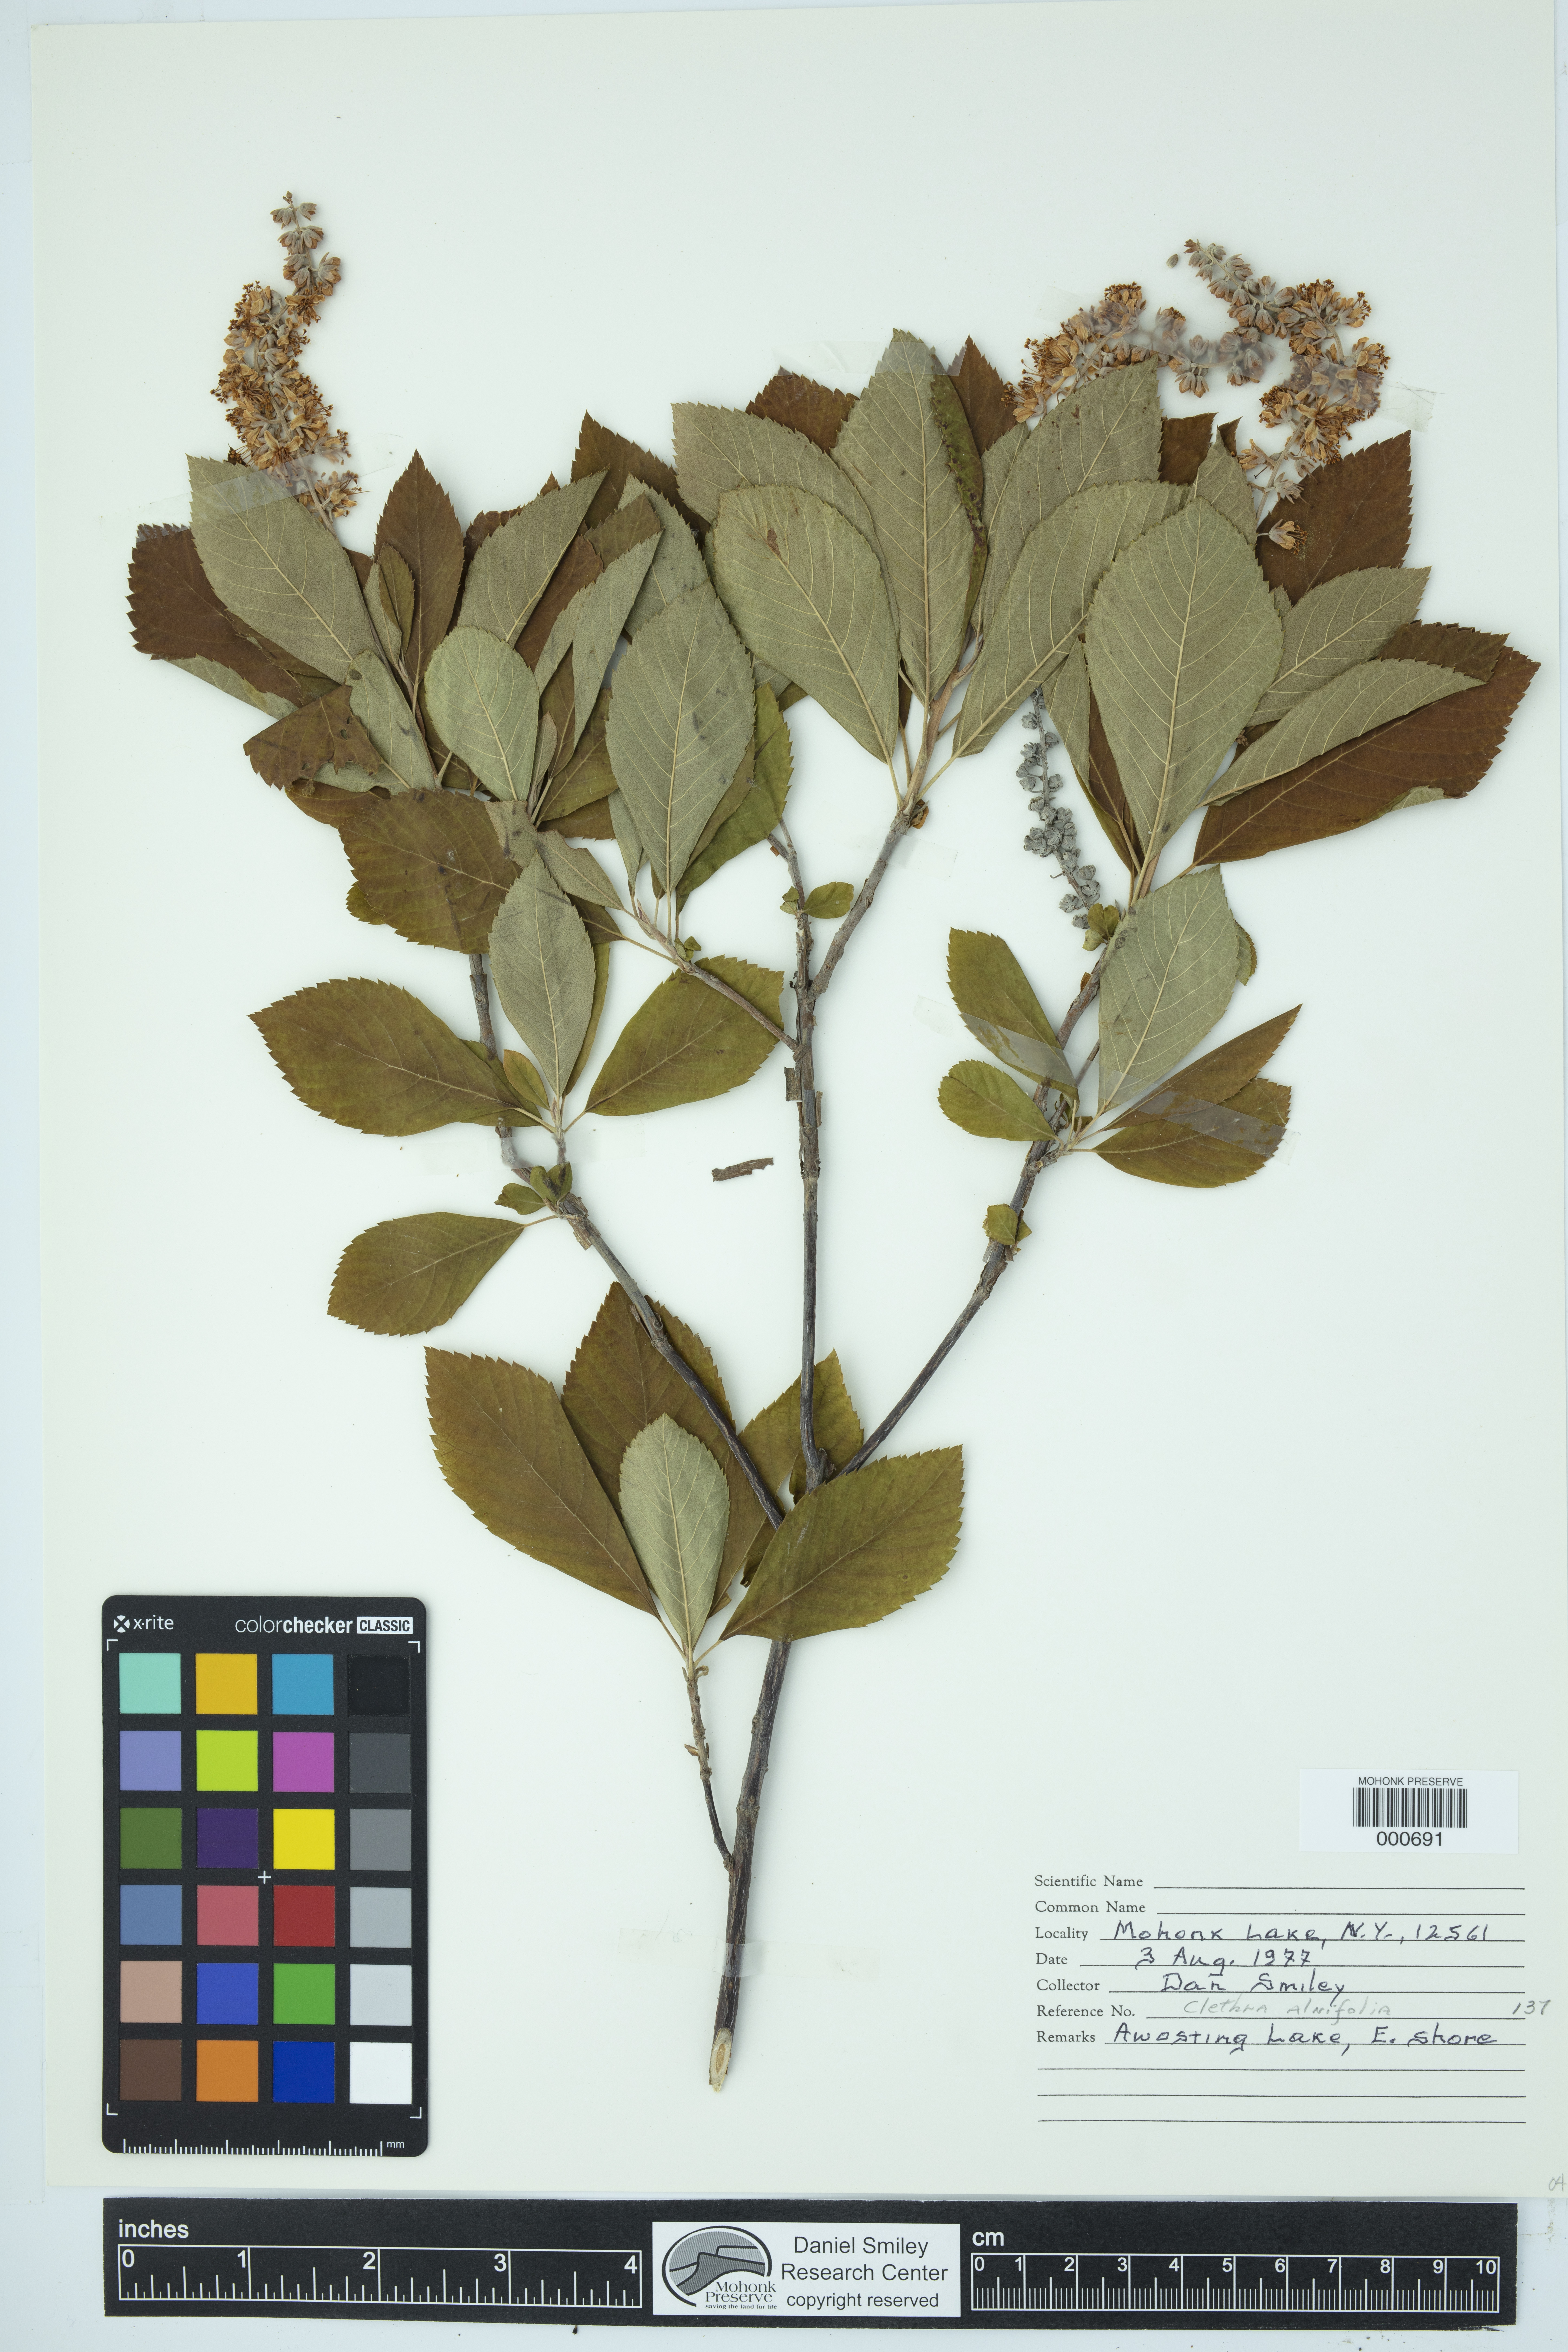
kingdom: Plantae
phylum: Tracheophyta
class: Magnoliopsida
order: Ericales
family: Clethraceae
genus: Clethra
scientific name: Clethra alnifolia
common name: Sweet pepperbush
